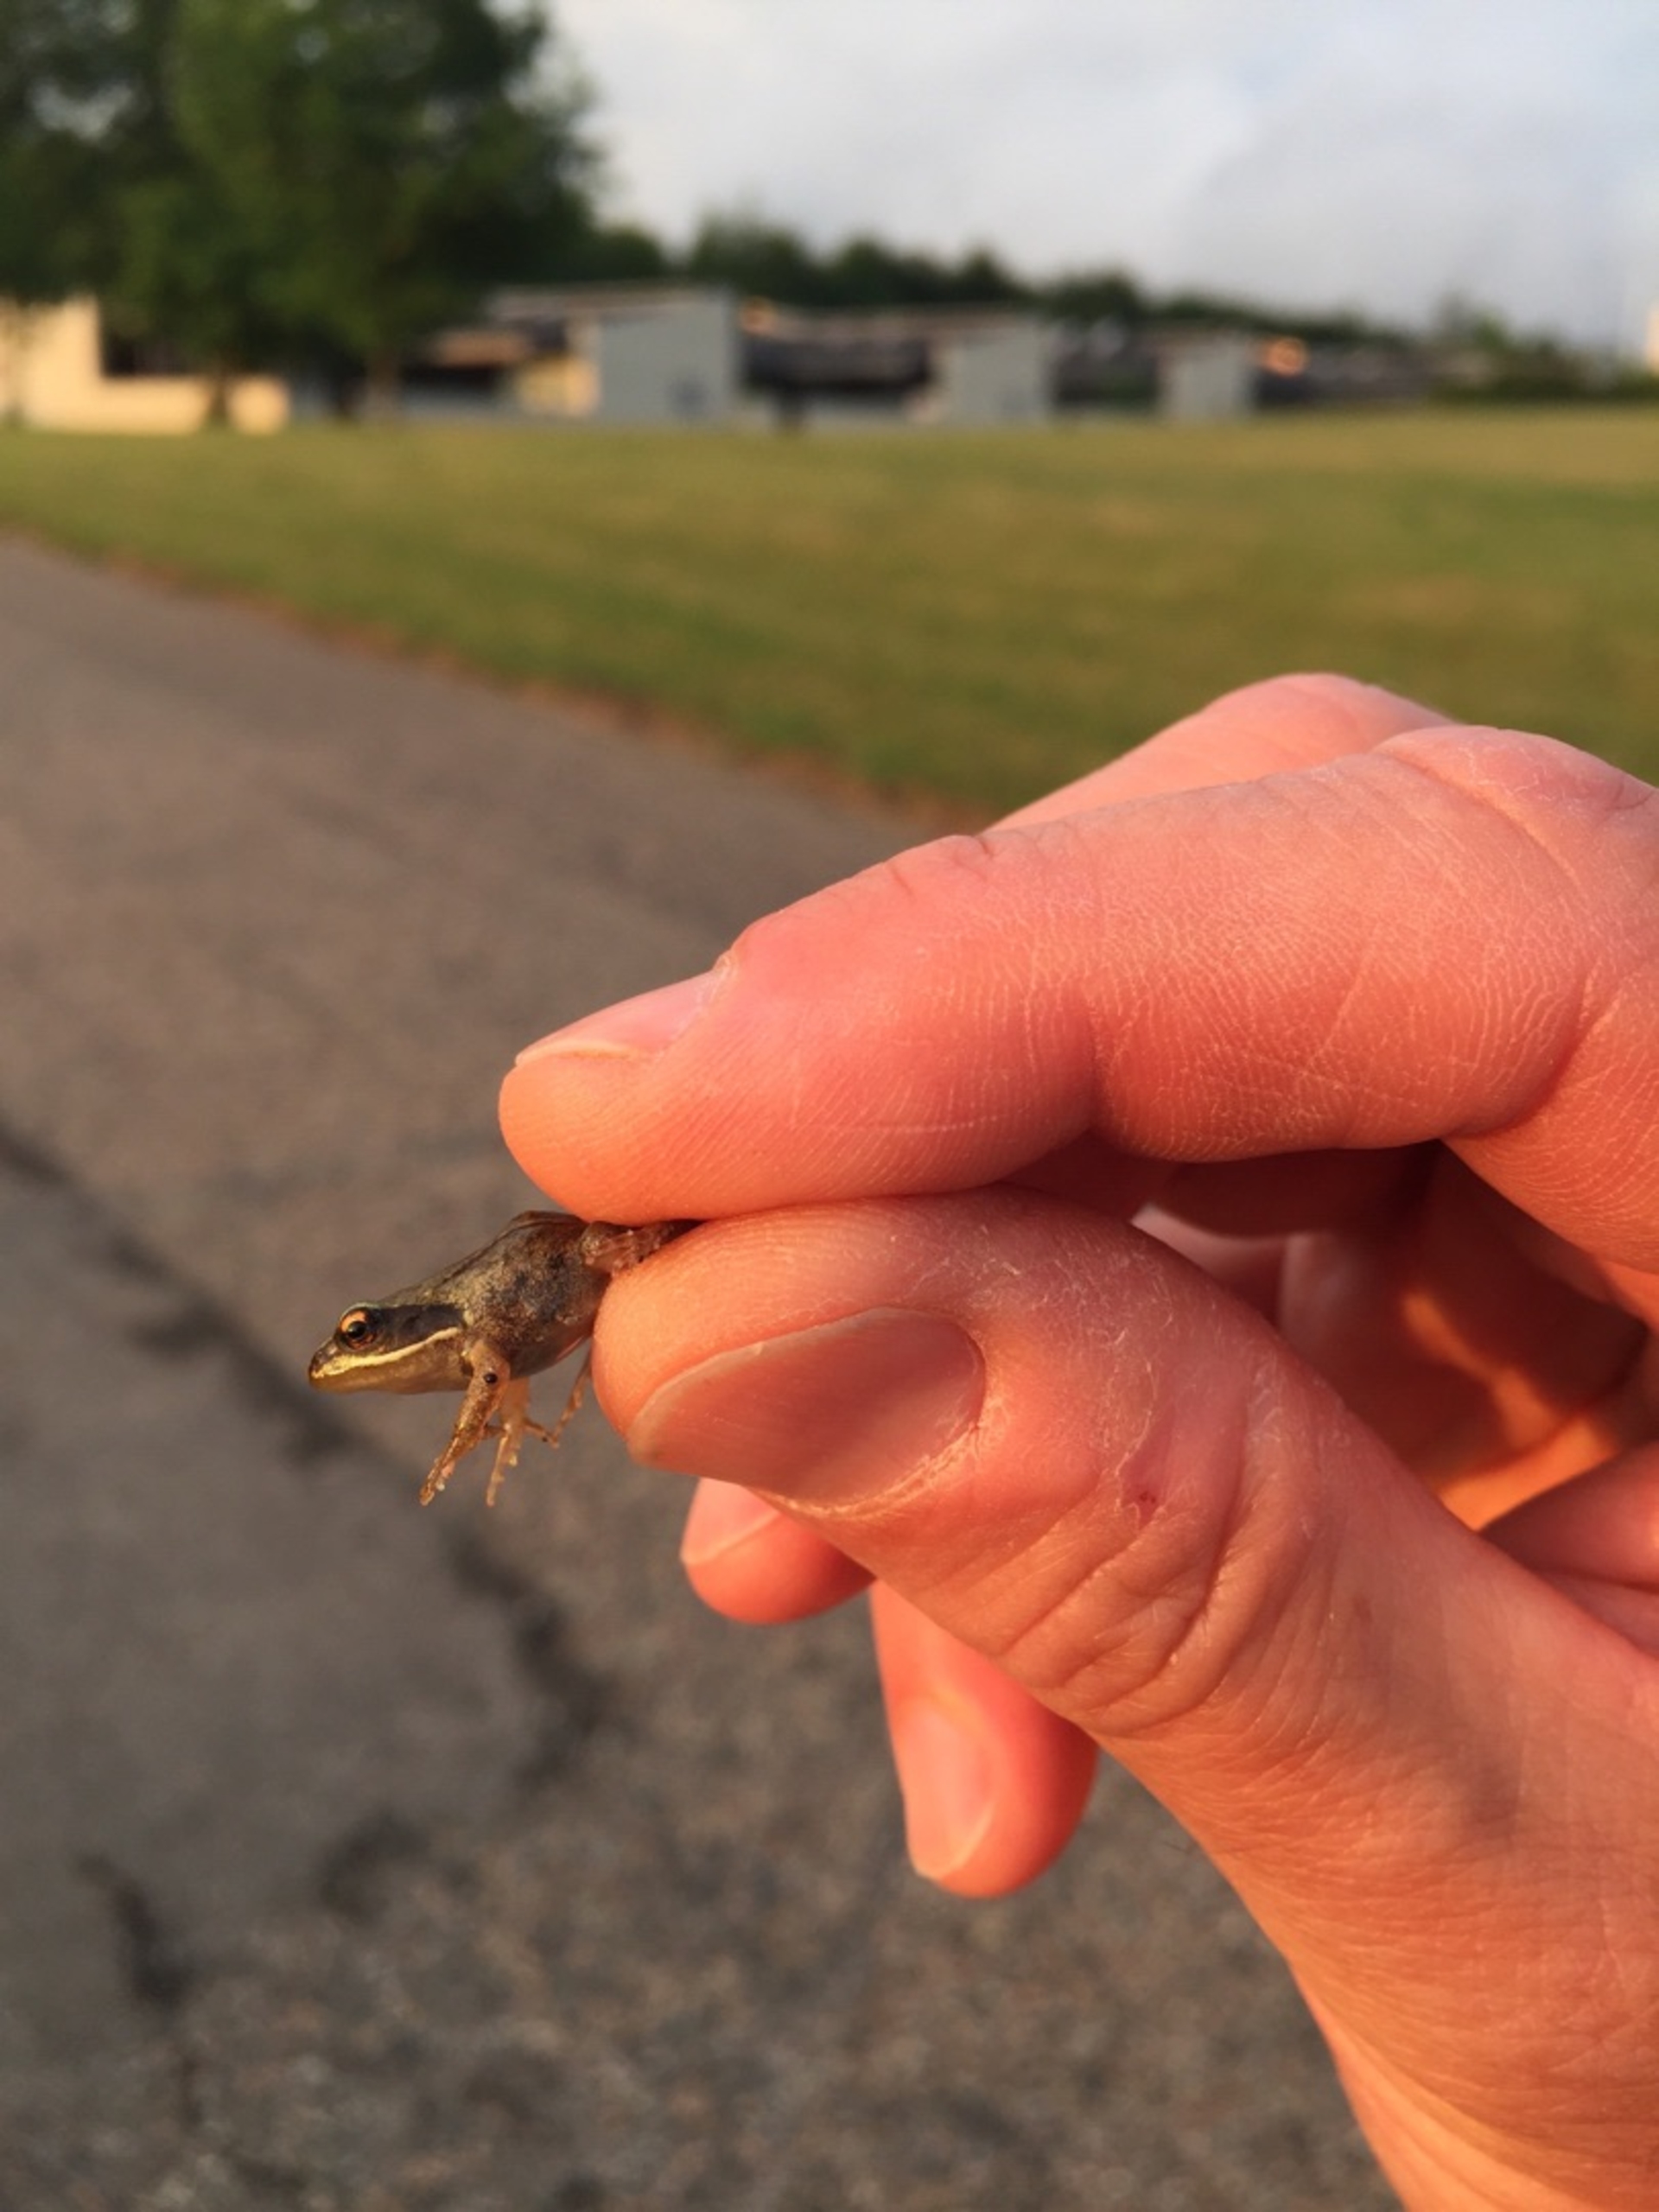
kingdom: Animalia
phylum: Chordata
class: Amphibia
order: Anura
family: Ranidae
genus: Rana
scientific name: Rana temporaria
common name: Butsnudet frø
